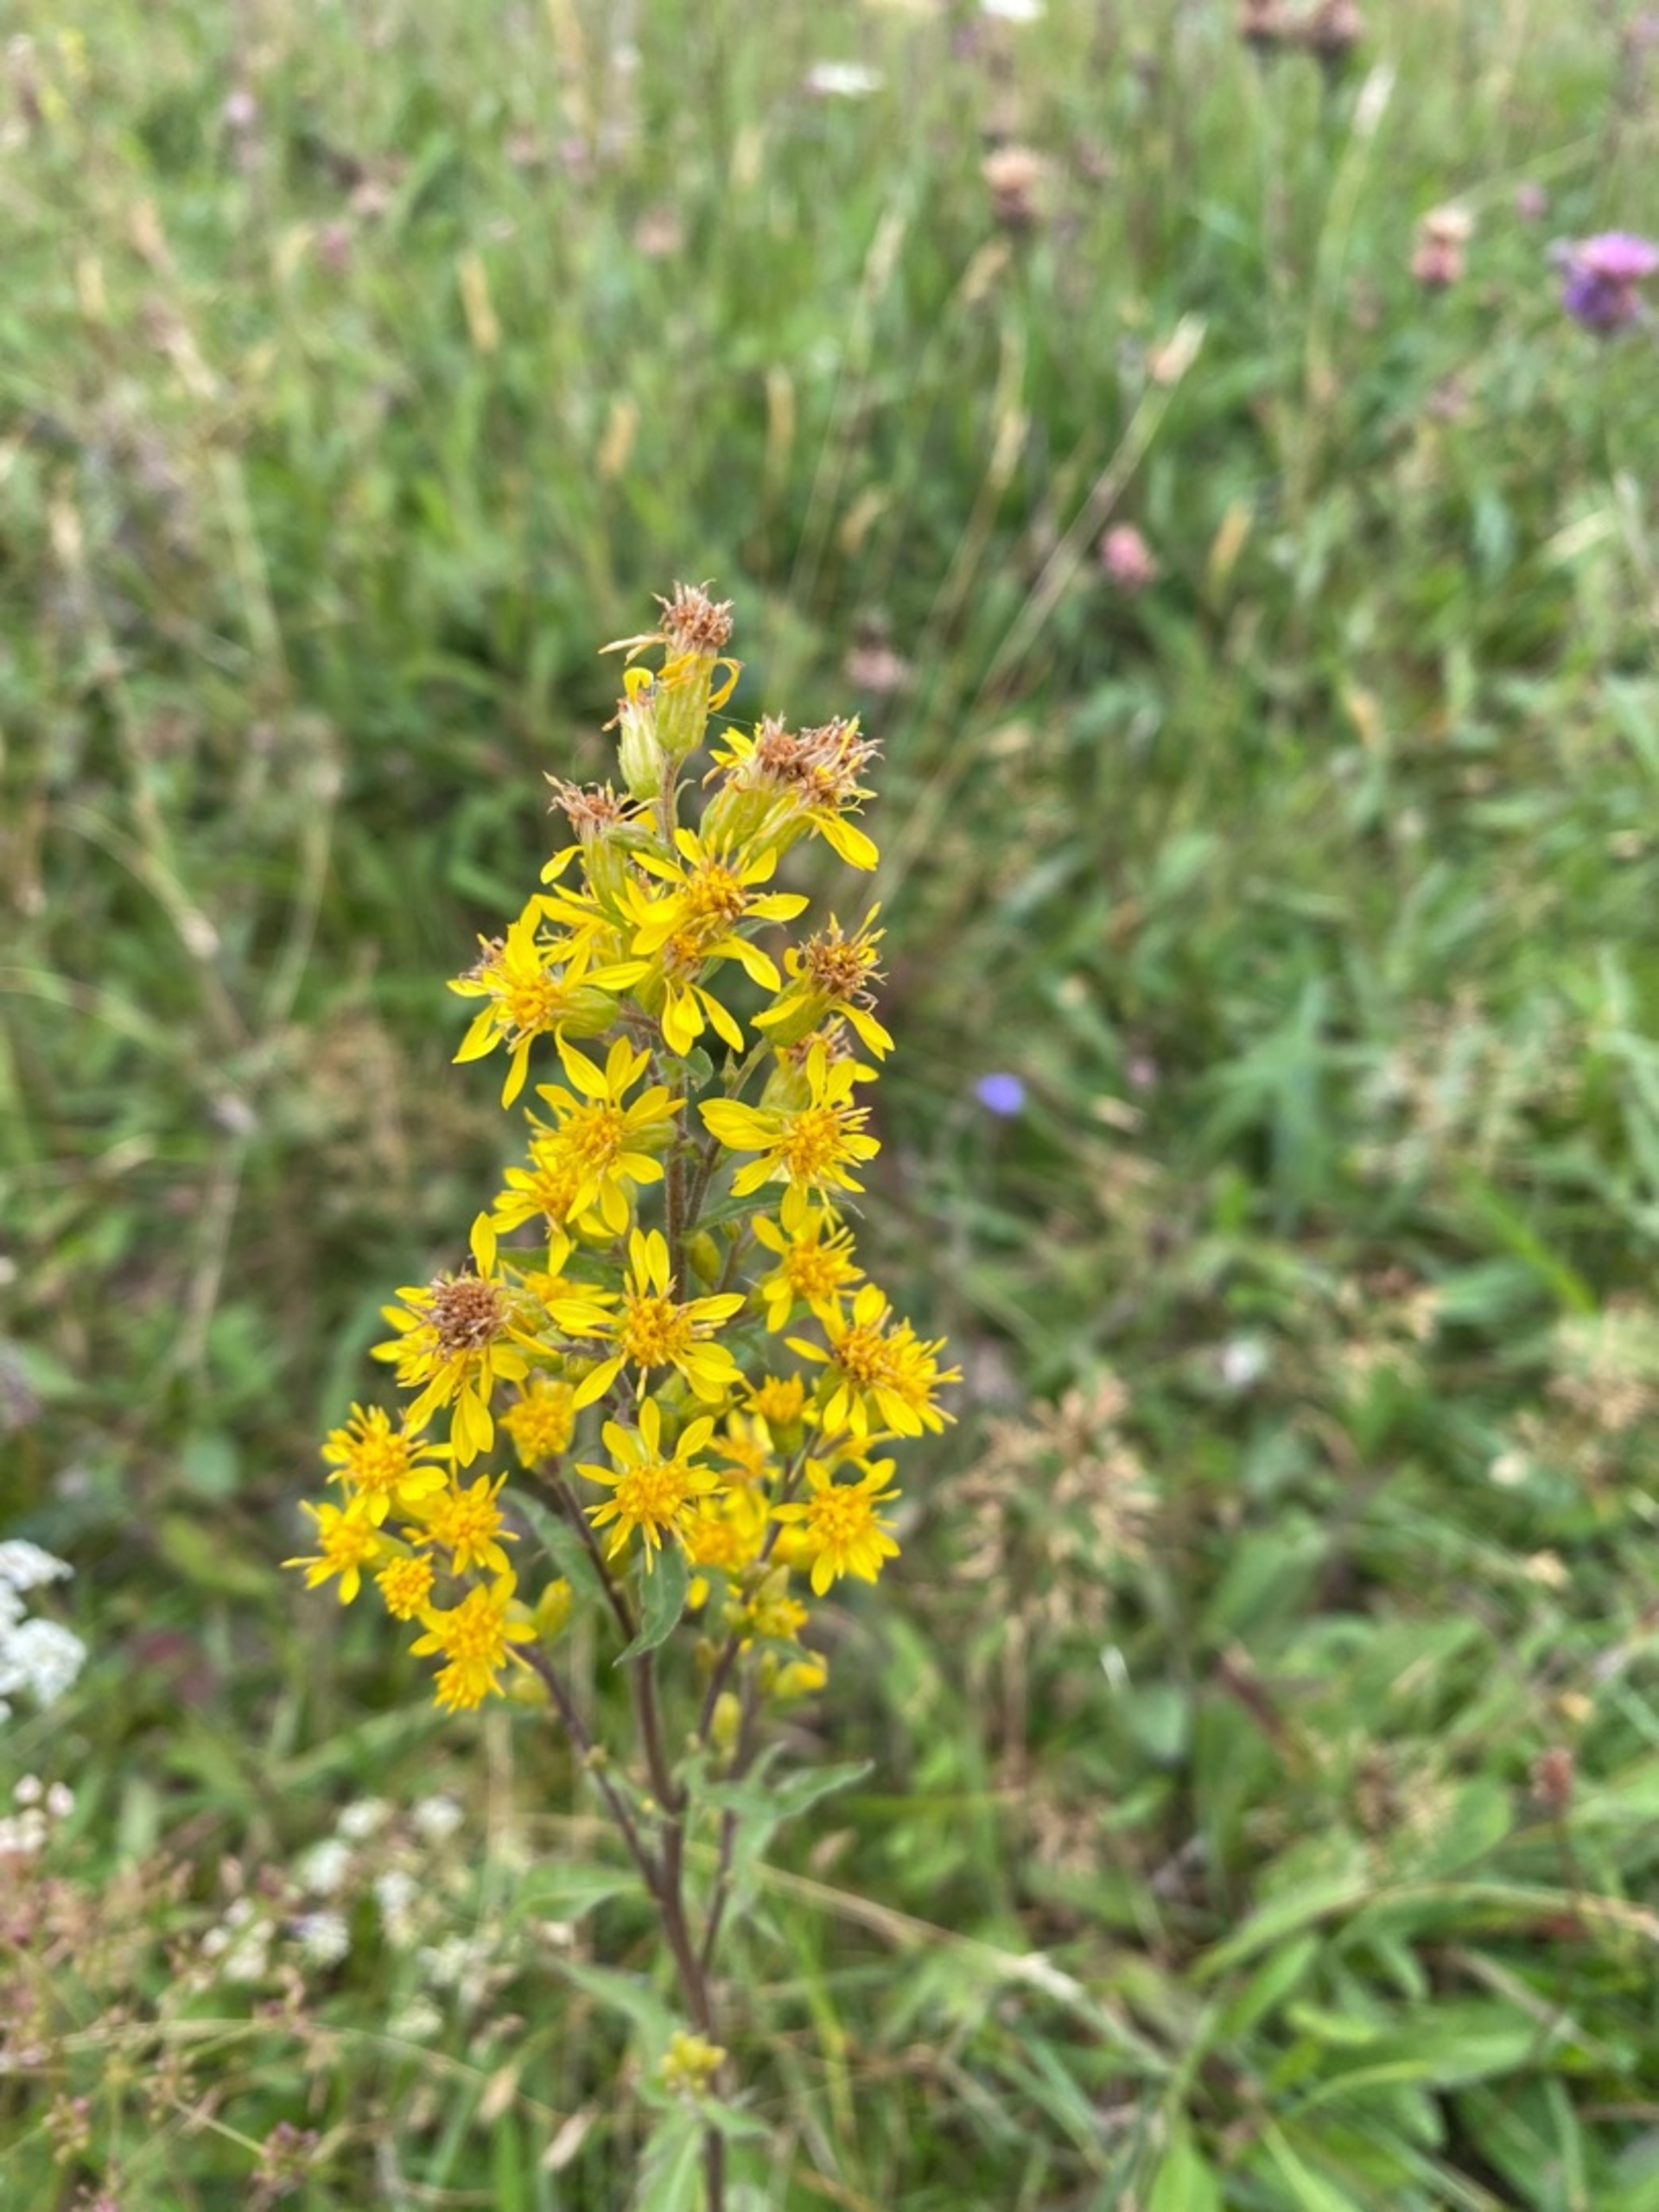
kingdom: Plantae
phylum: Tracheophyta
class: Magnoliopsida
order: Asterales
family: Asteraceae
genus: Solidago
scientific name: Solidago virgaurea
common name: Almindelig gyldenris
